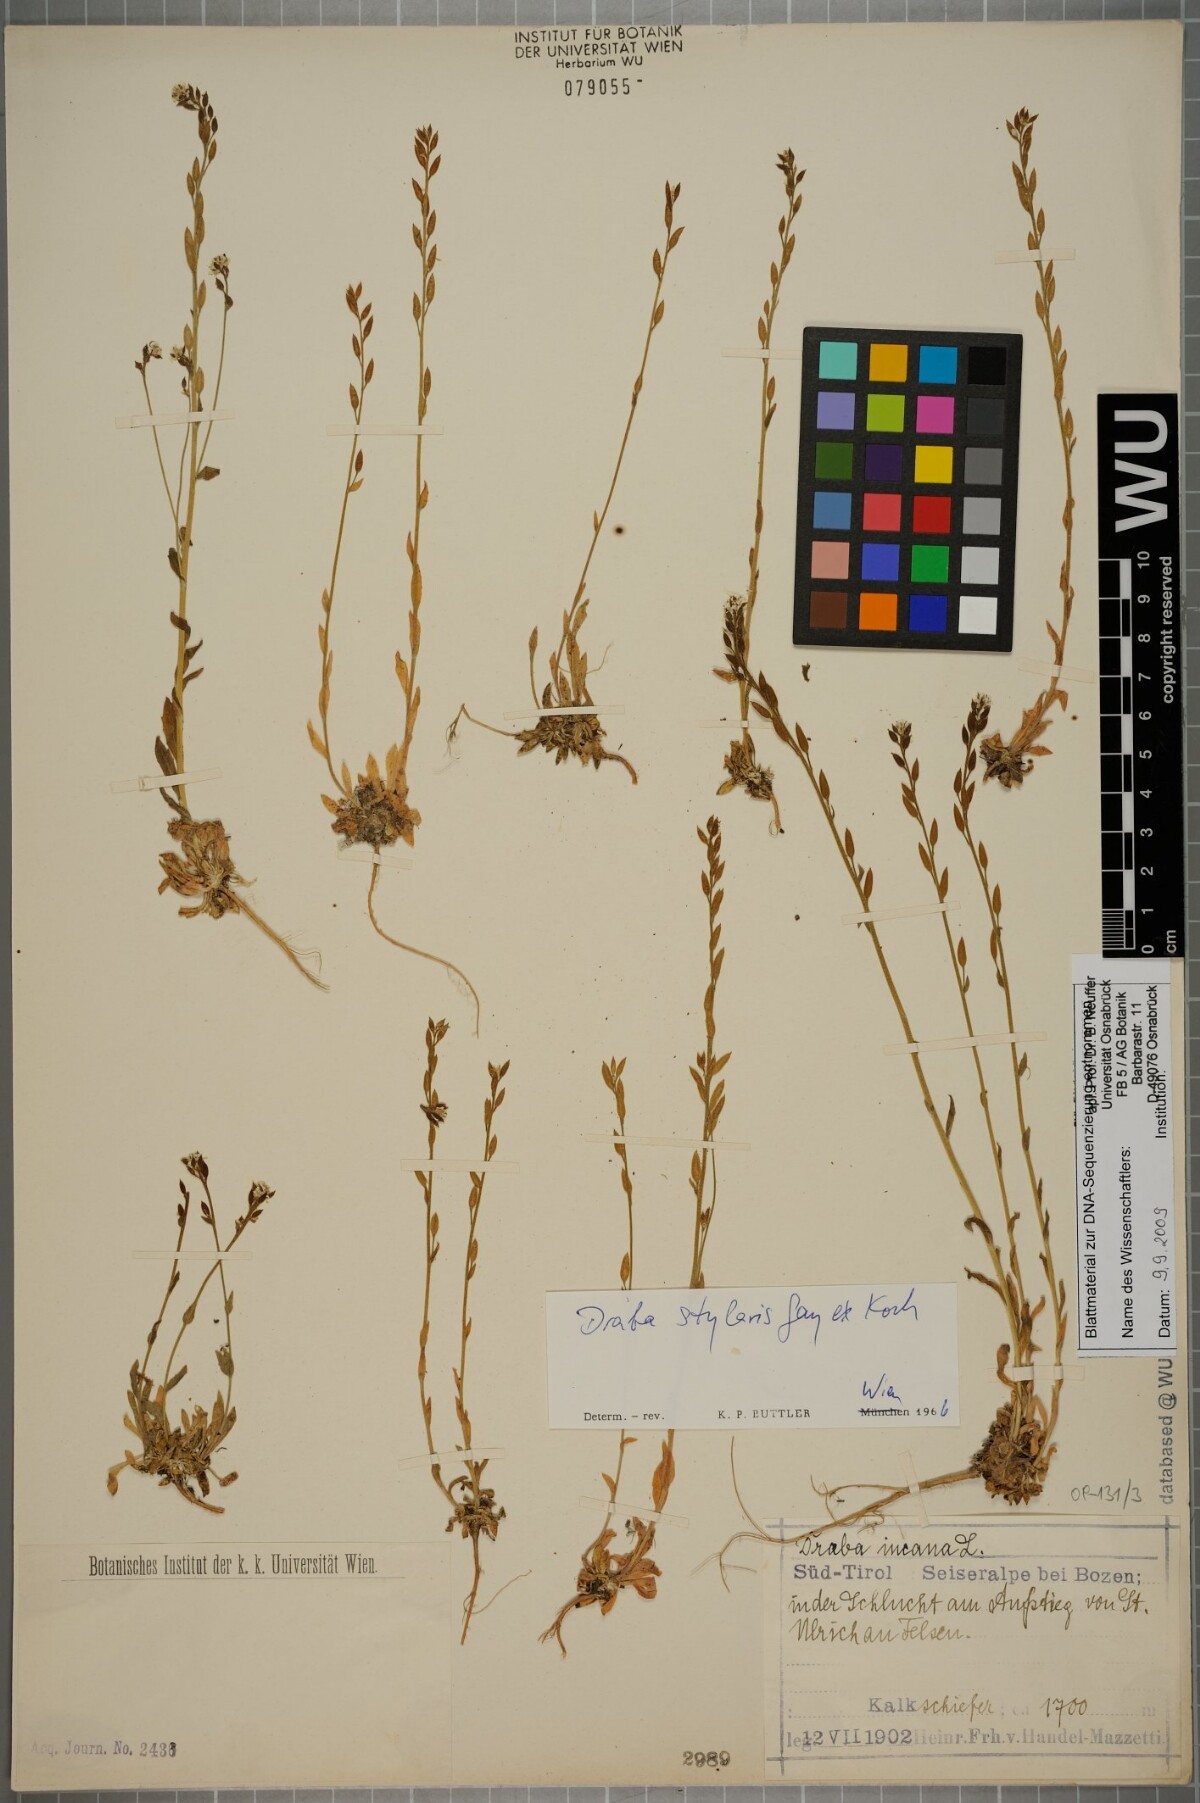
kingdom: Plantae
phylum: Tracheophyta
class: Magnoliopsida
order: Brassicales
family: Brassicaceae
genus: Draba
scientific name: Draba thomasii
